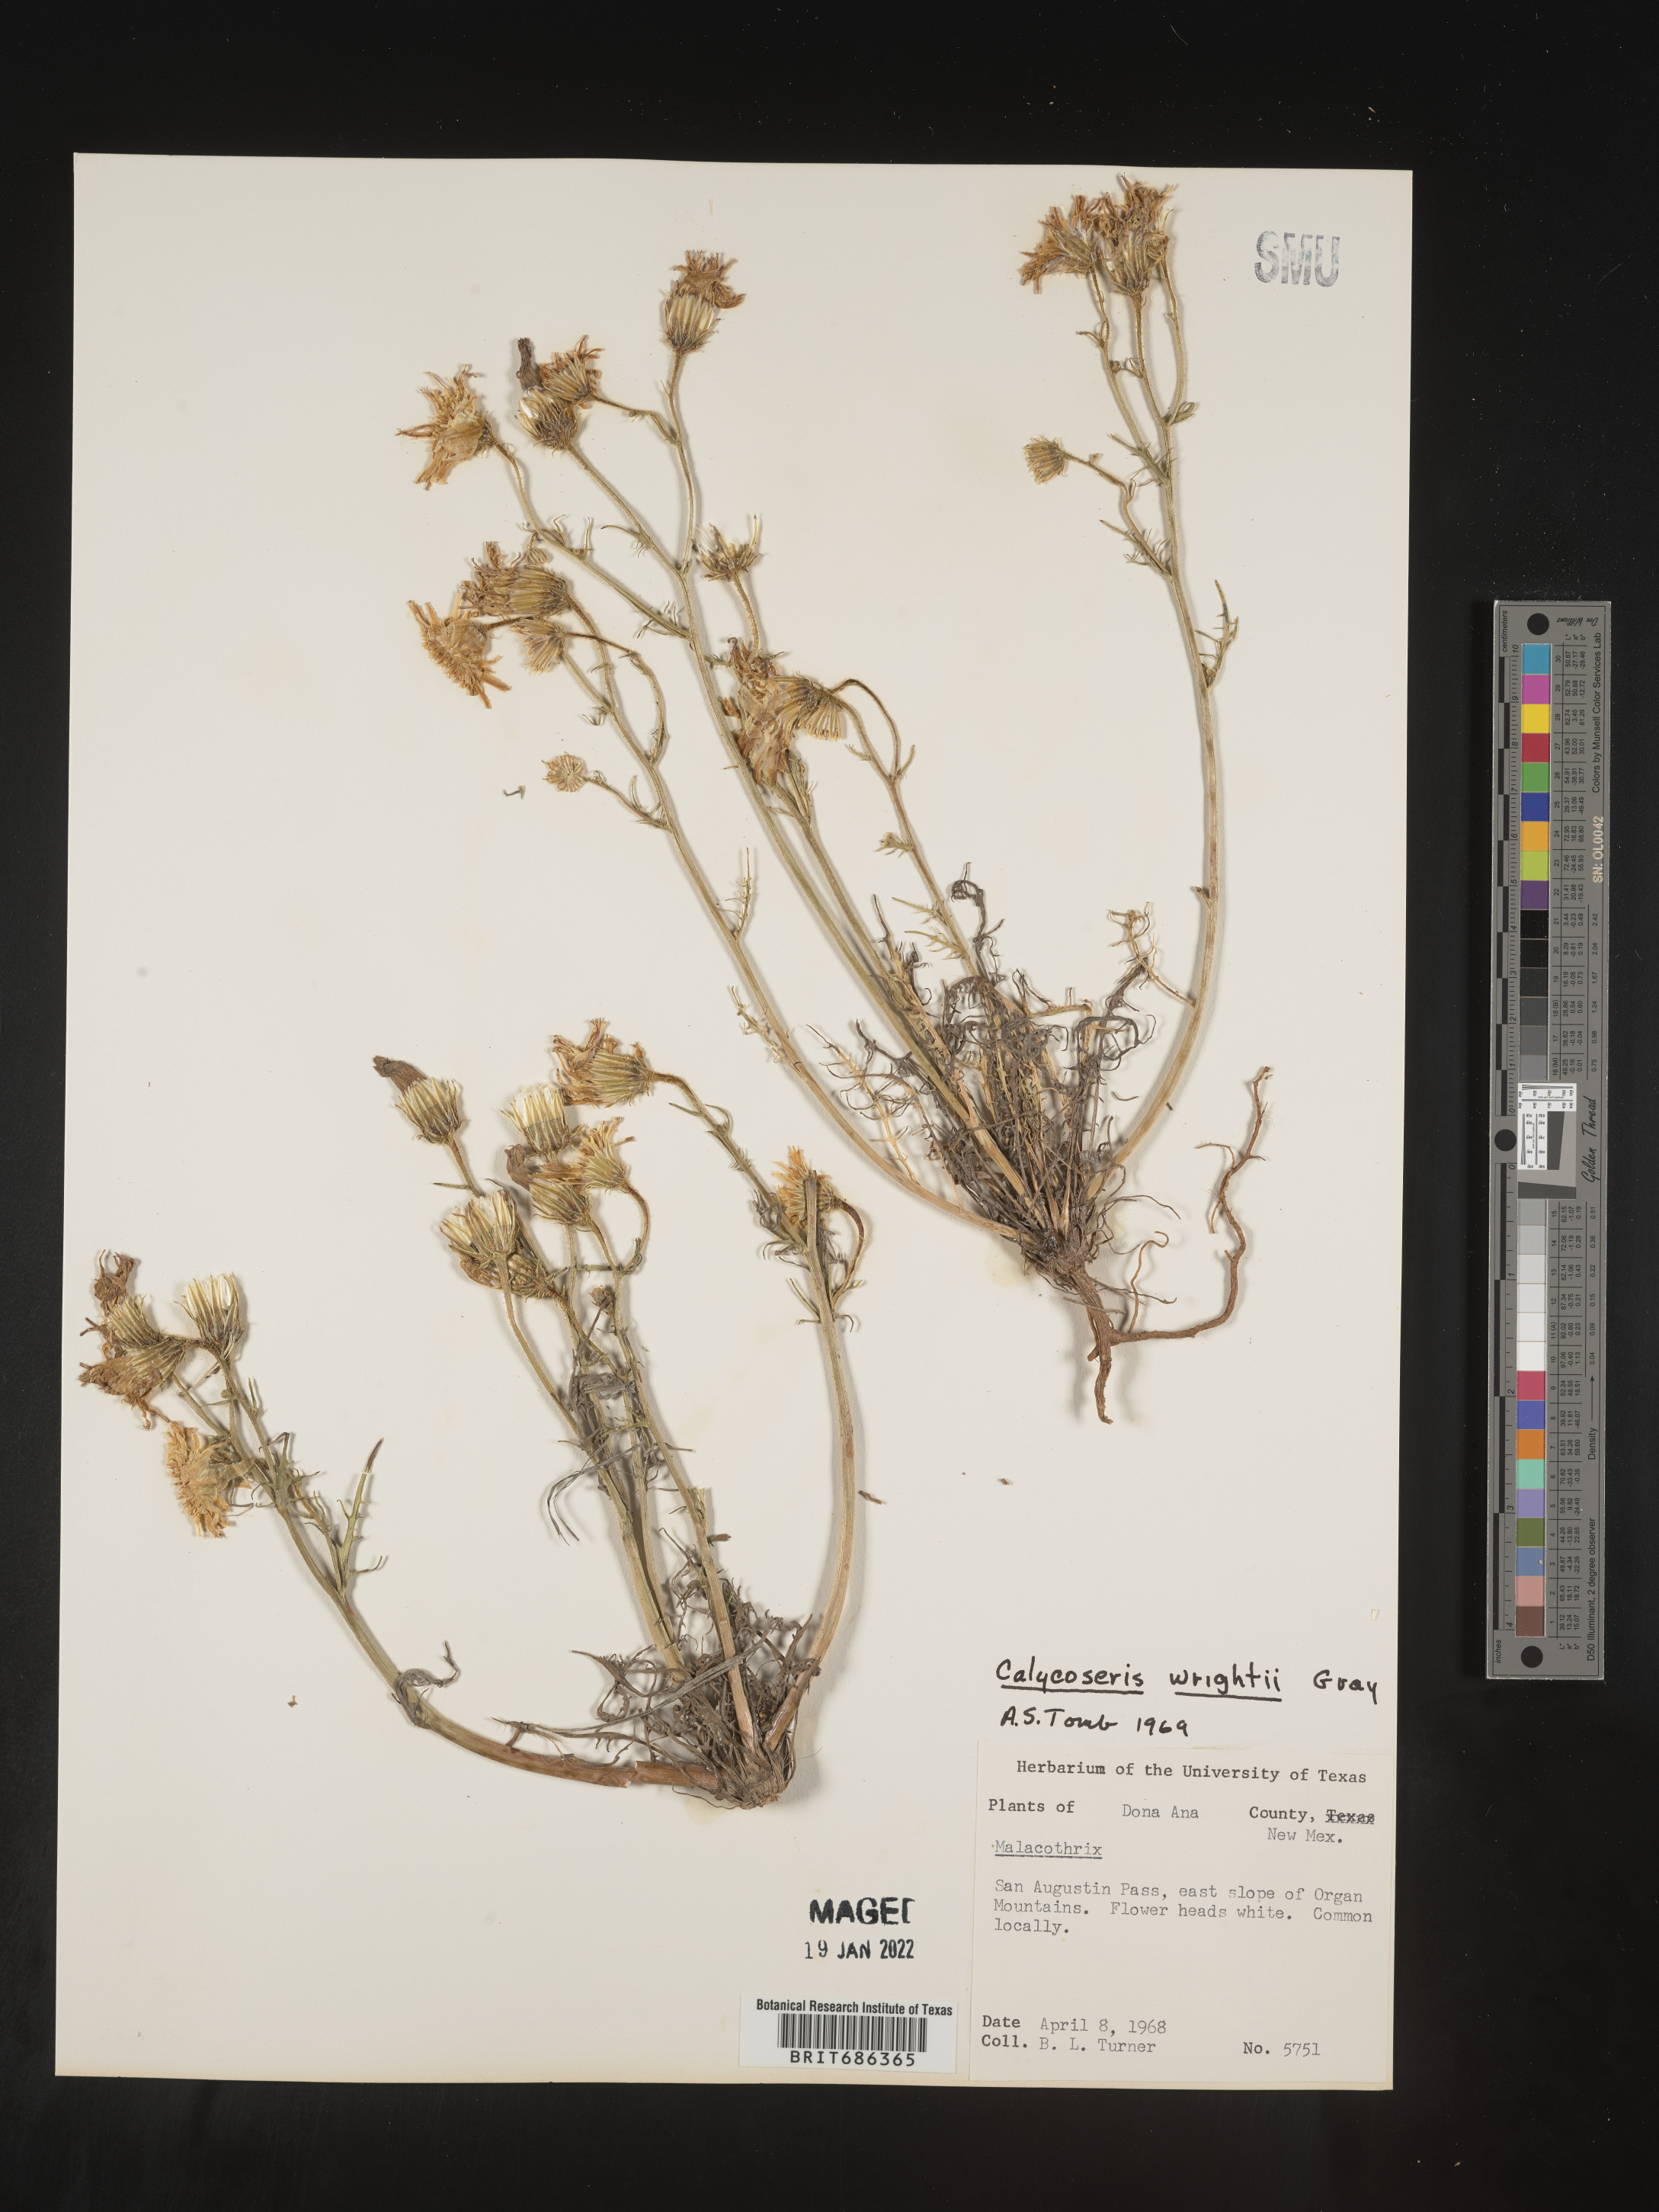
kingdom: Plantae
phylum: Tracheophyta
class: Magnoliopsida
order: Asterales
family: Asteraceae
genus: Calycoseris
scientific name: Calycoseris
